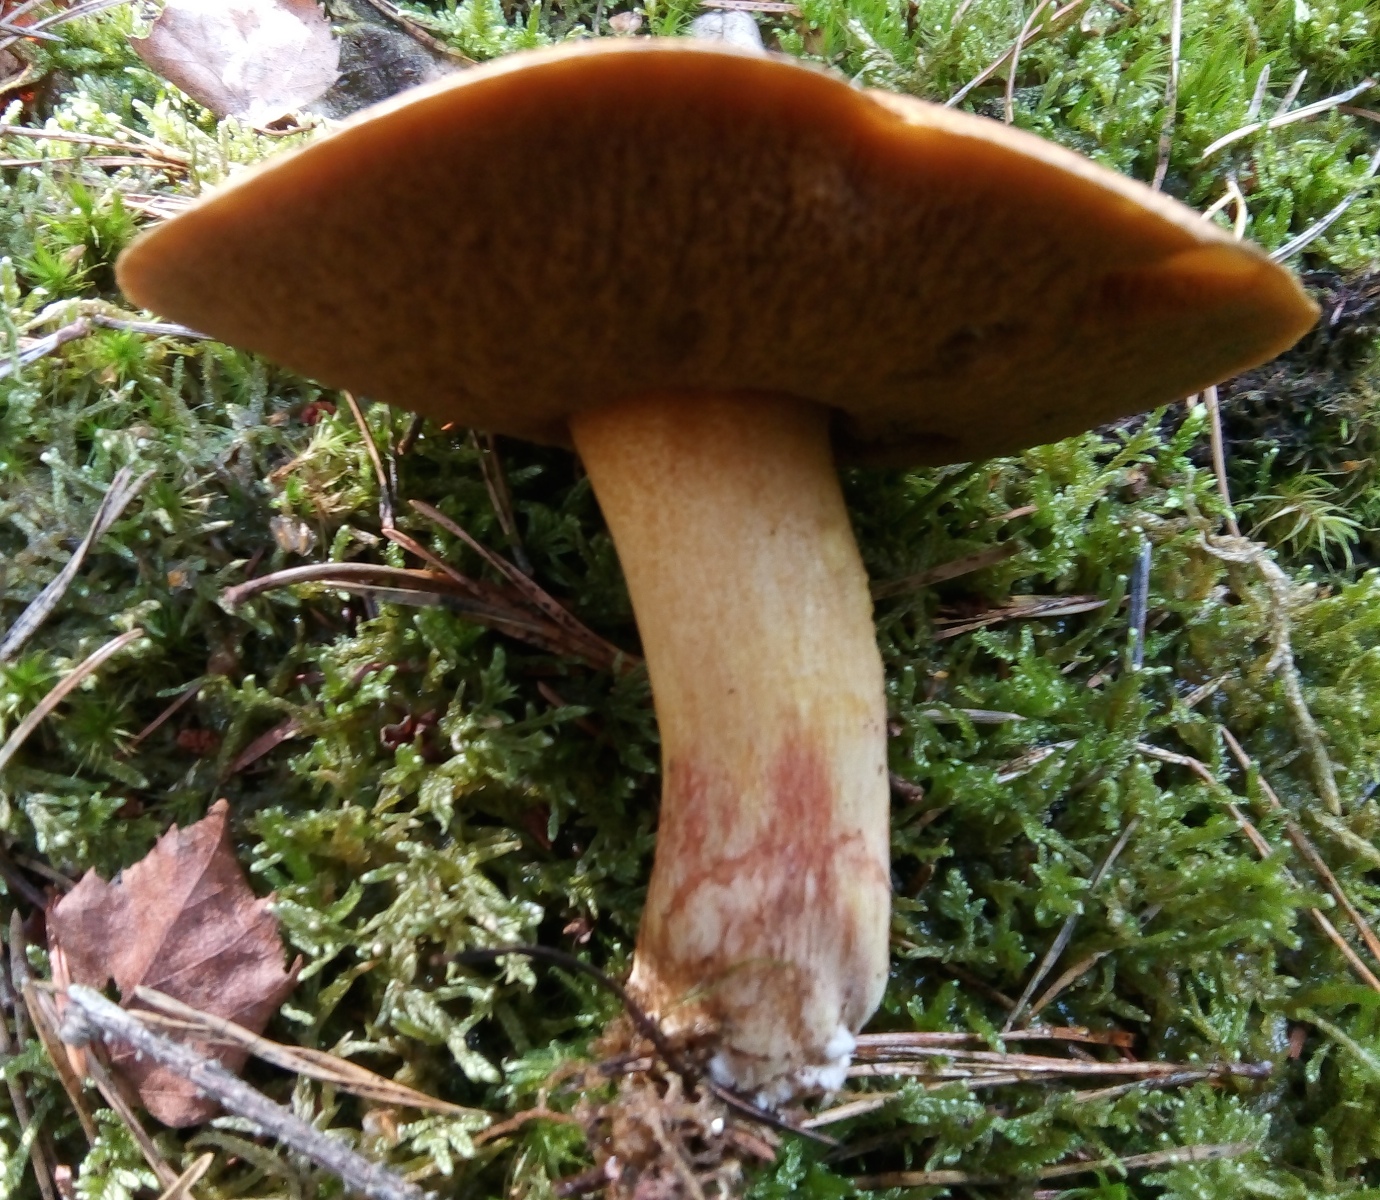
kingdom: Fungi
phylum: Basidiomycota
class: Agaricomycetes
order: Boletales
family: Suillaceae
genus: Suillus
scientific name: Suillus variegatus
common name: broget slimrørhat
